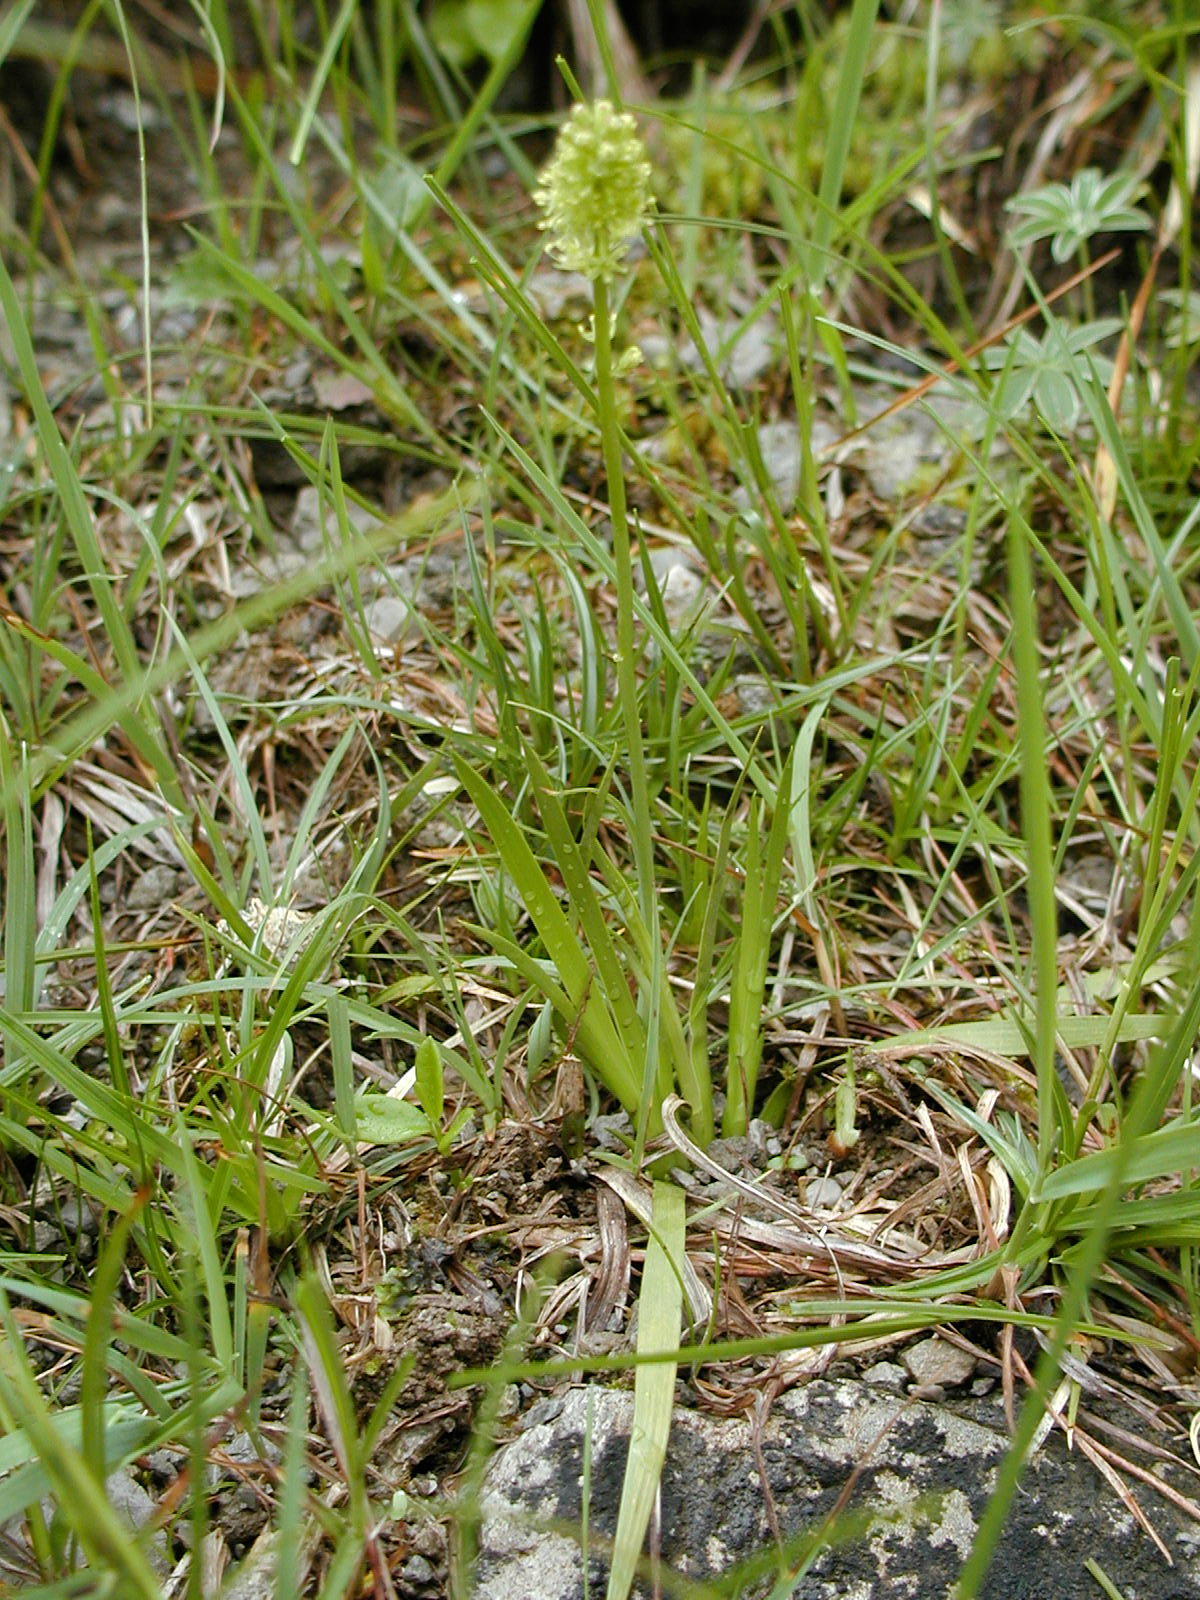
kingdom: Plantae
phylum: Tracheophyta
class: Liliopsida
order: Alismatales
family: Tofieldiaceae
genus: Tofieldia
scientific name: Tofieldia calyculata
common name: German-asphodel
